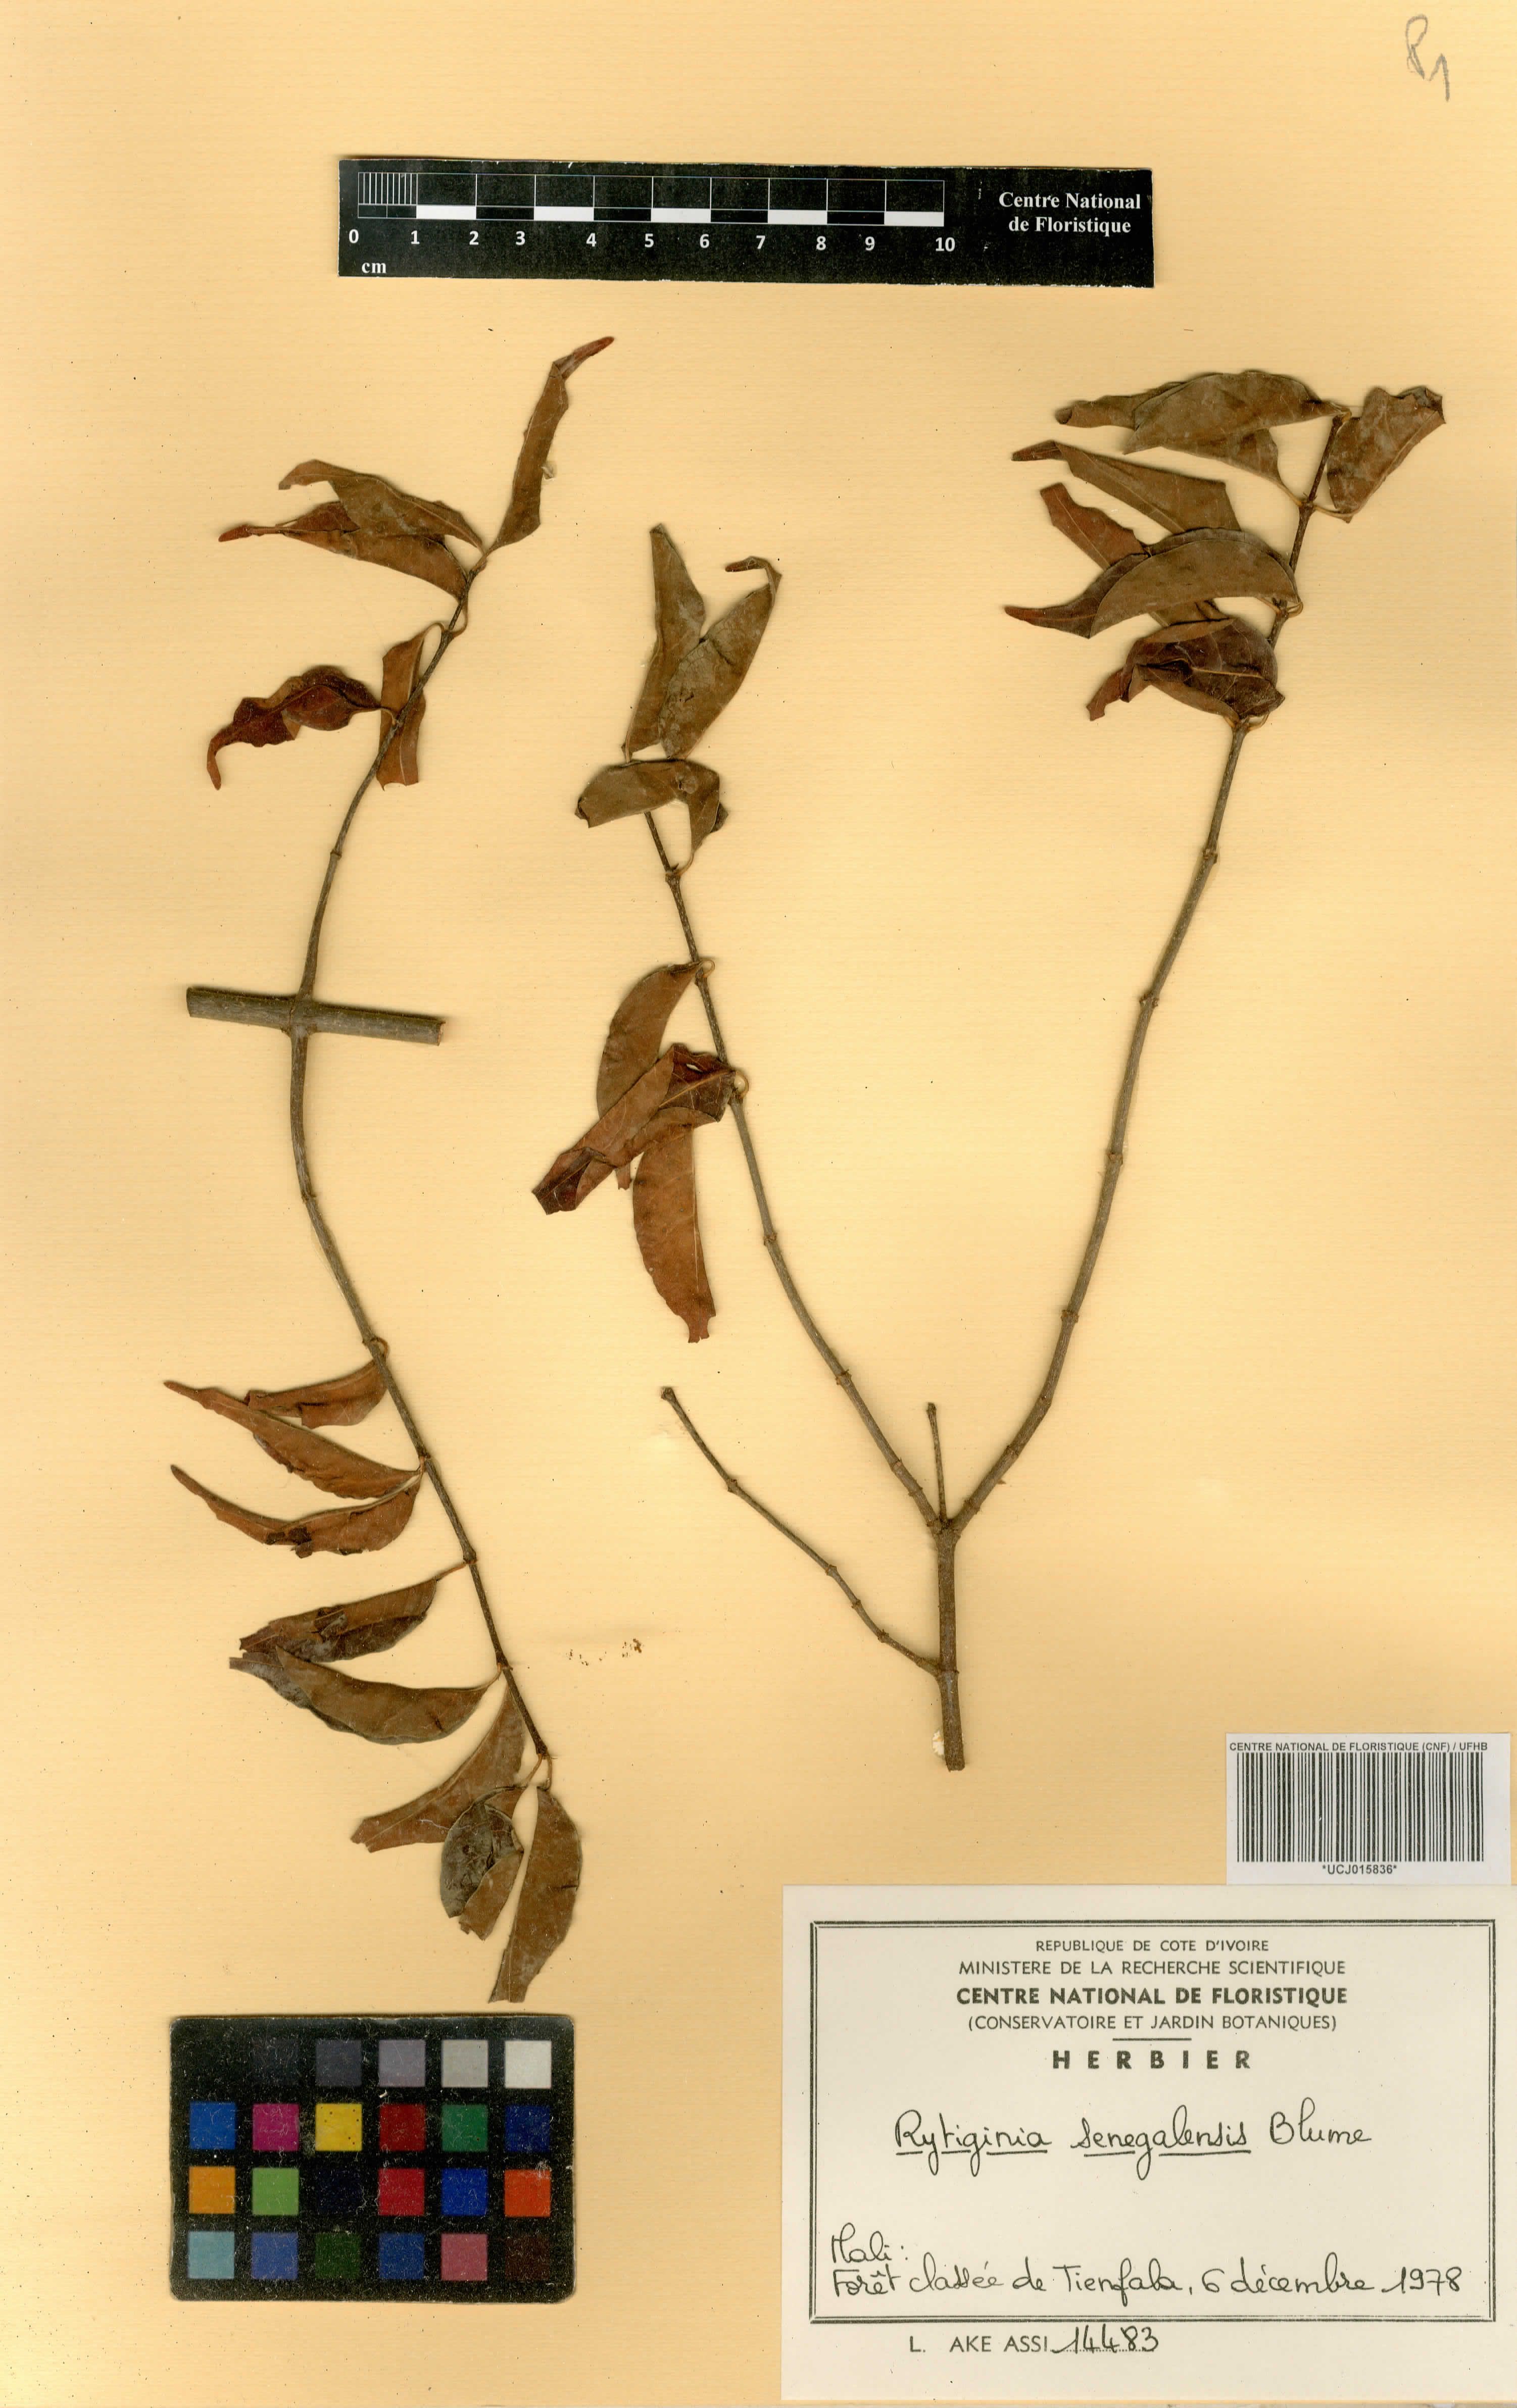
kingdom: Plantae
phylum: Tracheophyta
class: Magnoliopsida
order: Gentianales
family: Rubiaceae
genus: Rytigynia
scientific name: Rytigynia senegalensis
